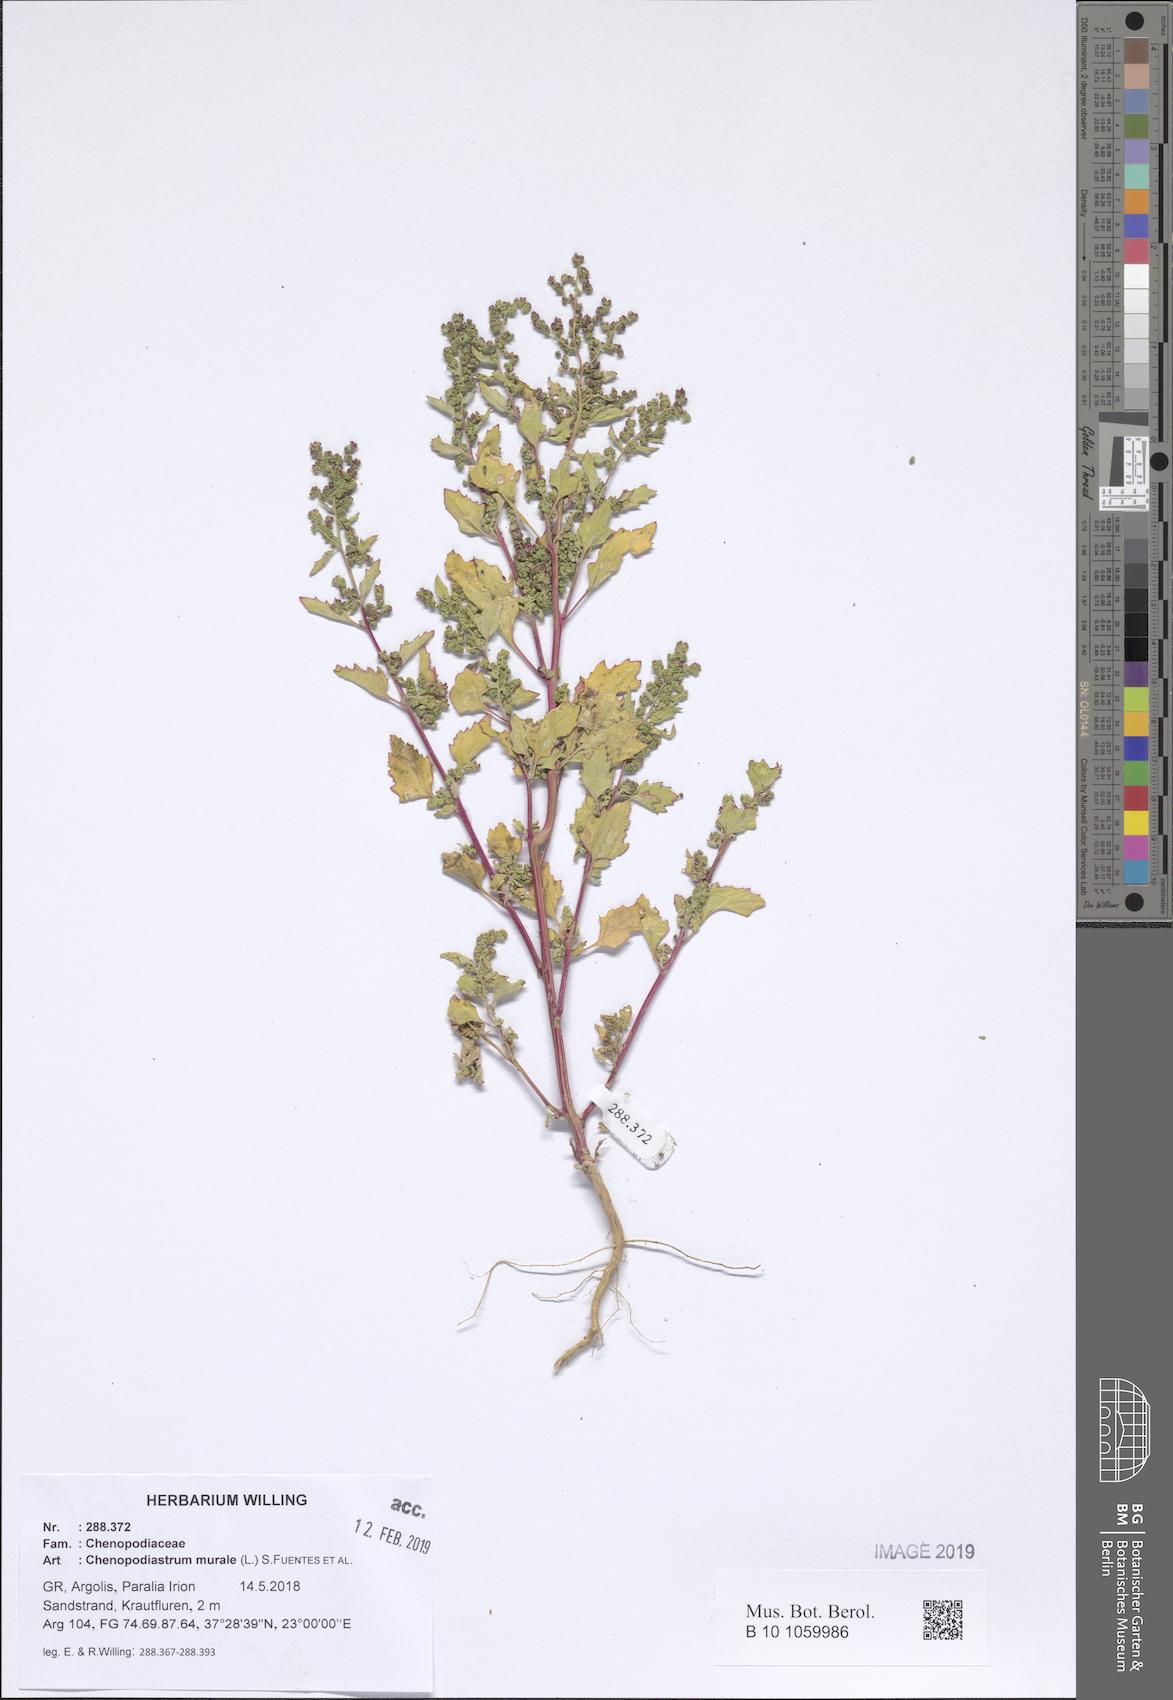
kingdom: Plantae
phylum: Tracheophyta
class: Magnoliopsida
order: Caryophyllales
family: Amaranthaceae
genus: Chenopodiastrum
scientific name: Chenopodiastrum murale
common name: Sowbane
